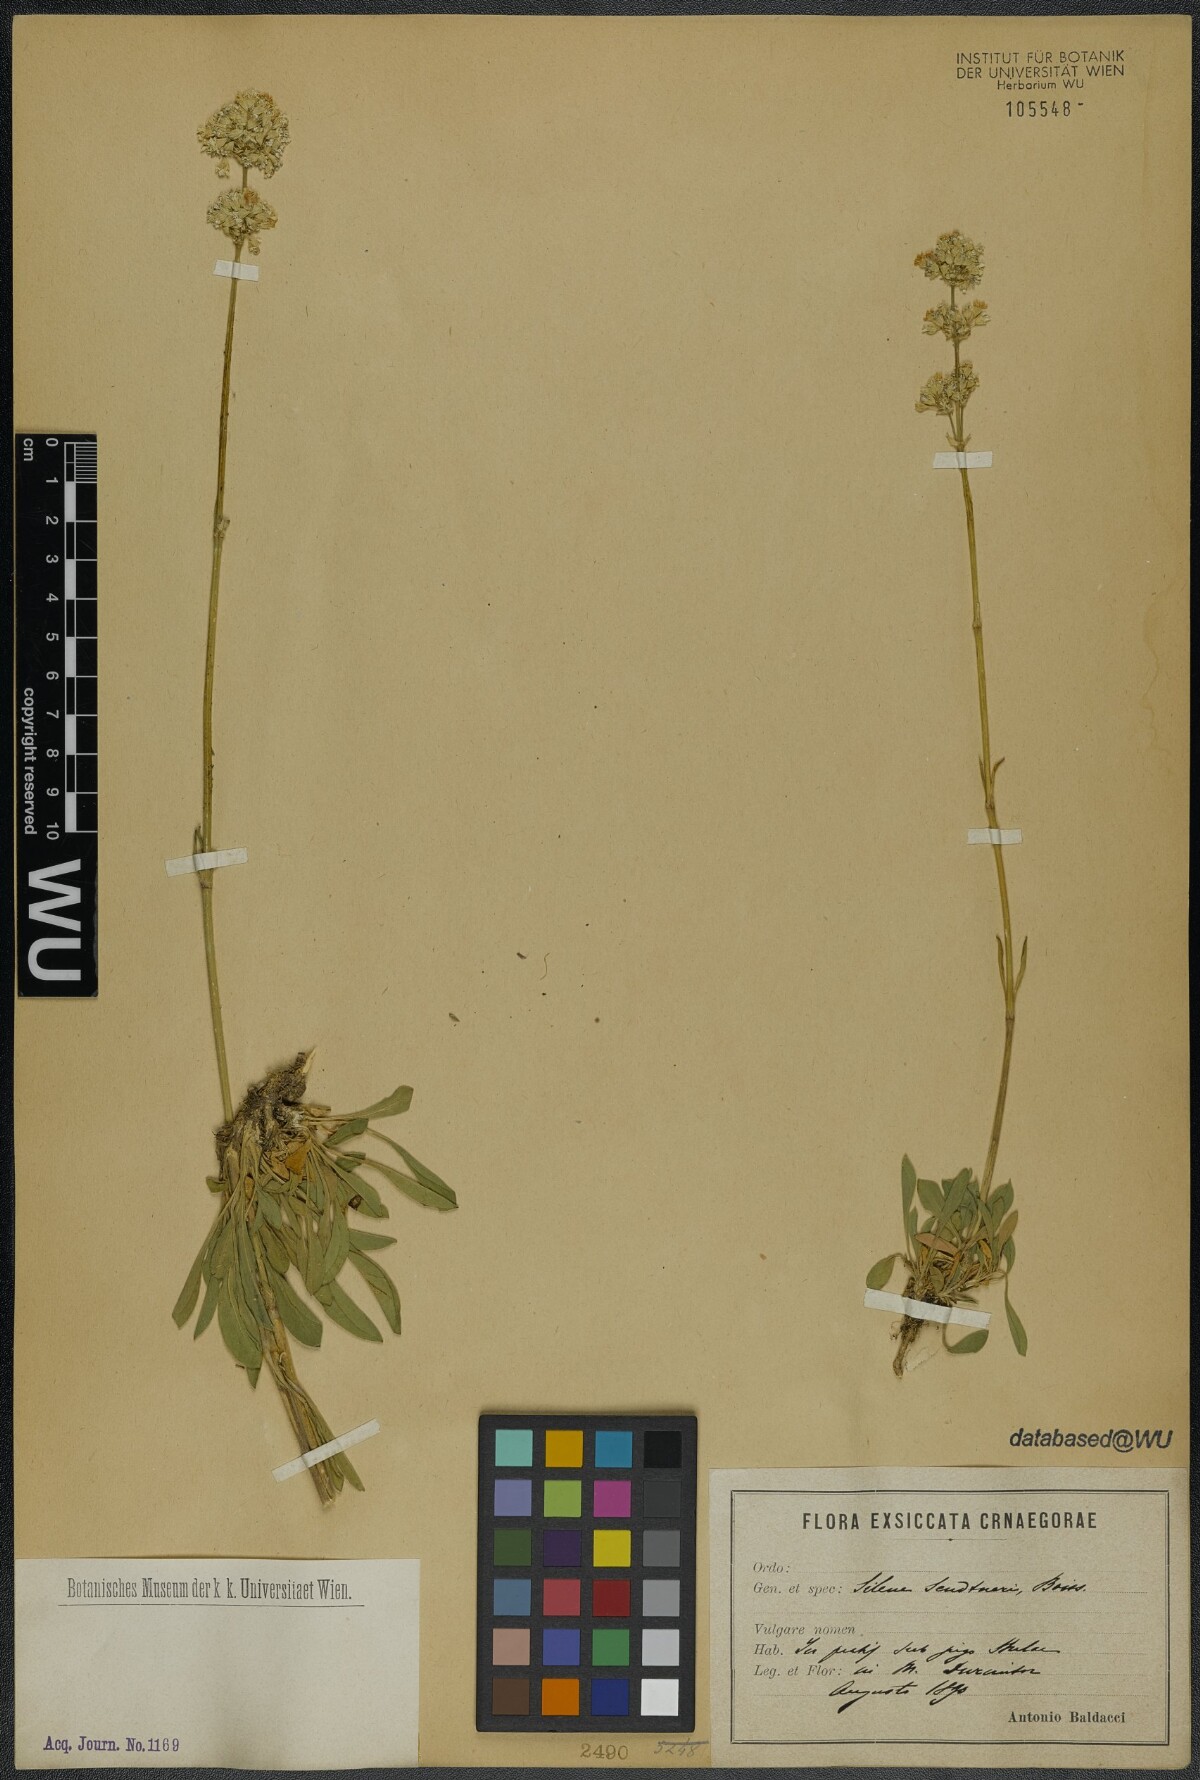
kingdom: Plantae
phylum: Tracheophyta
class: Magnoliopsida
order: Caryophyllales
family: Caryophyllaceae
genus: Silene
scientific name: Silene sendtneri
